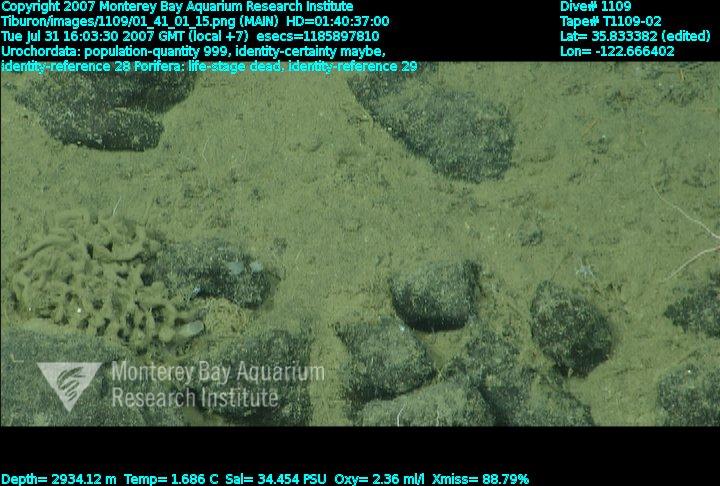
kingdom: Animalia
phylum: Porifera
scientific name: Porifera
